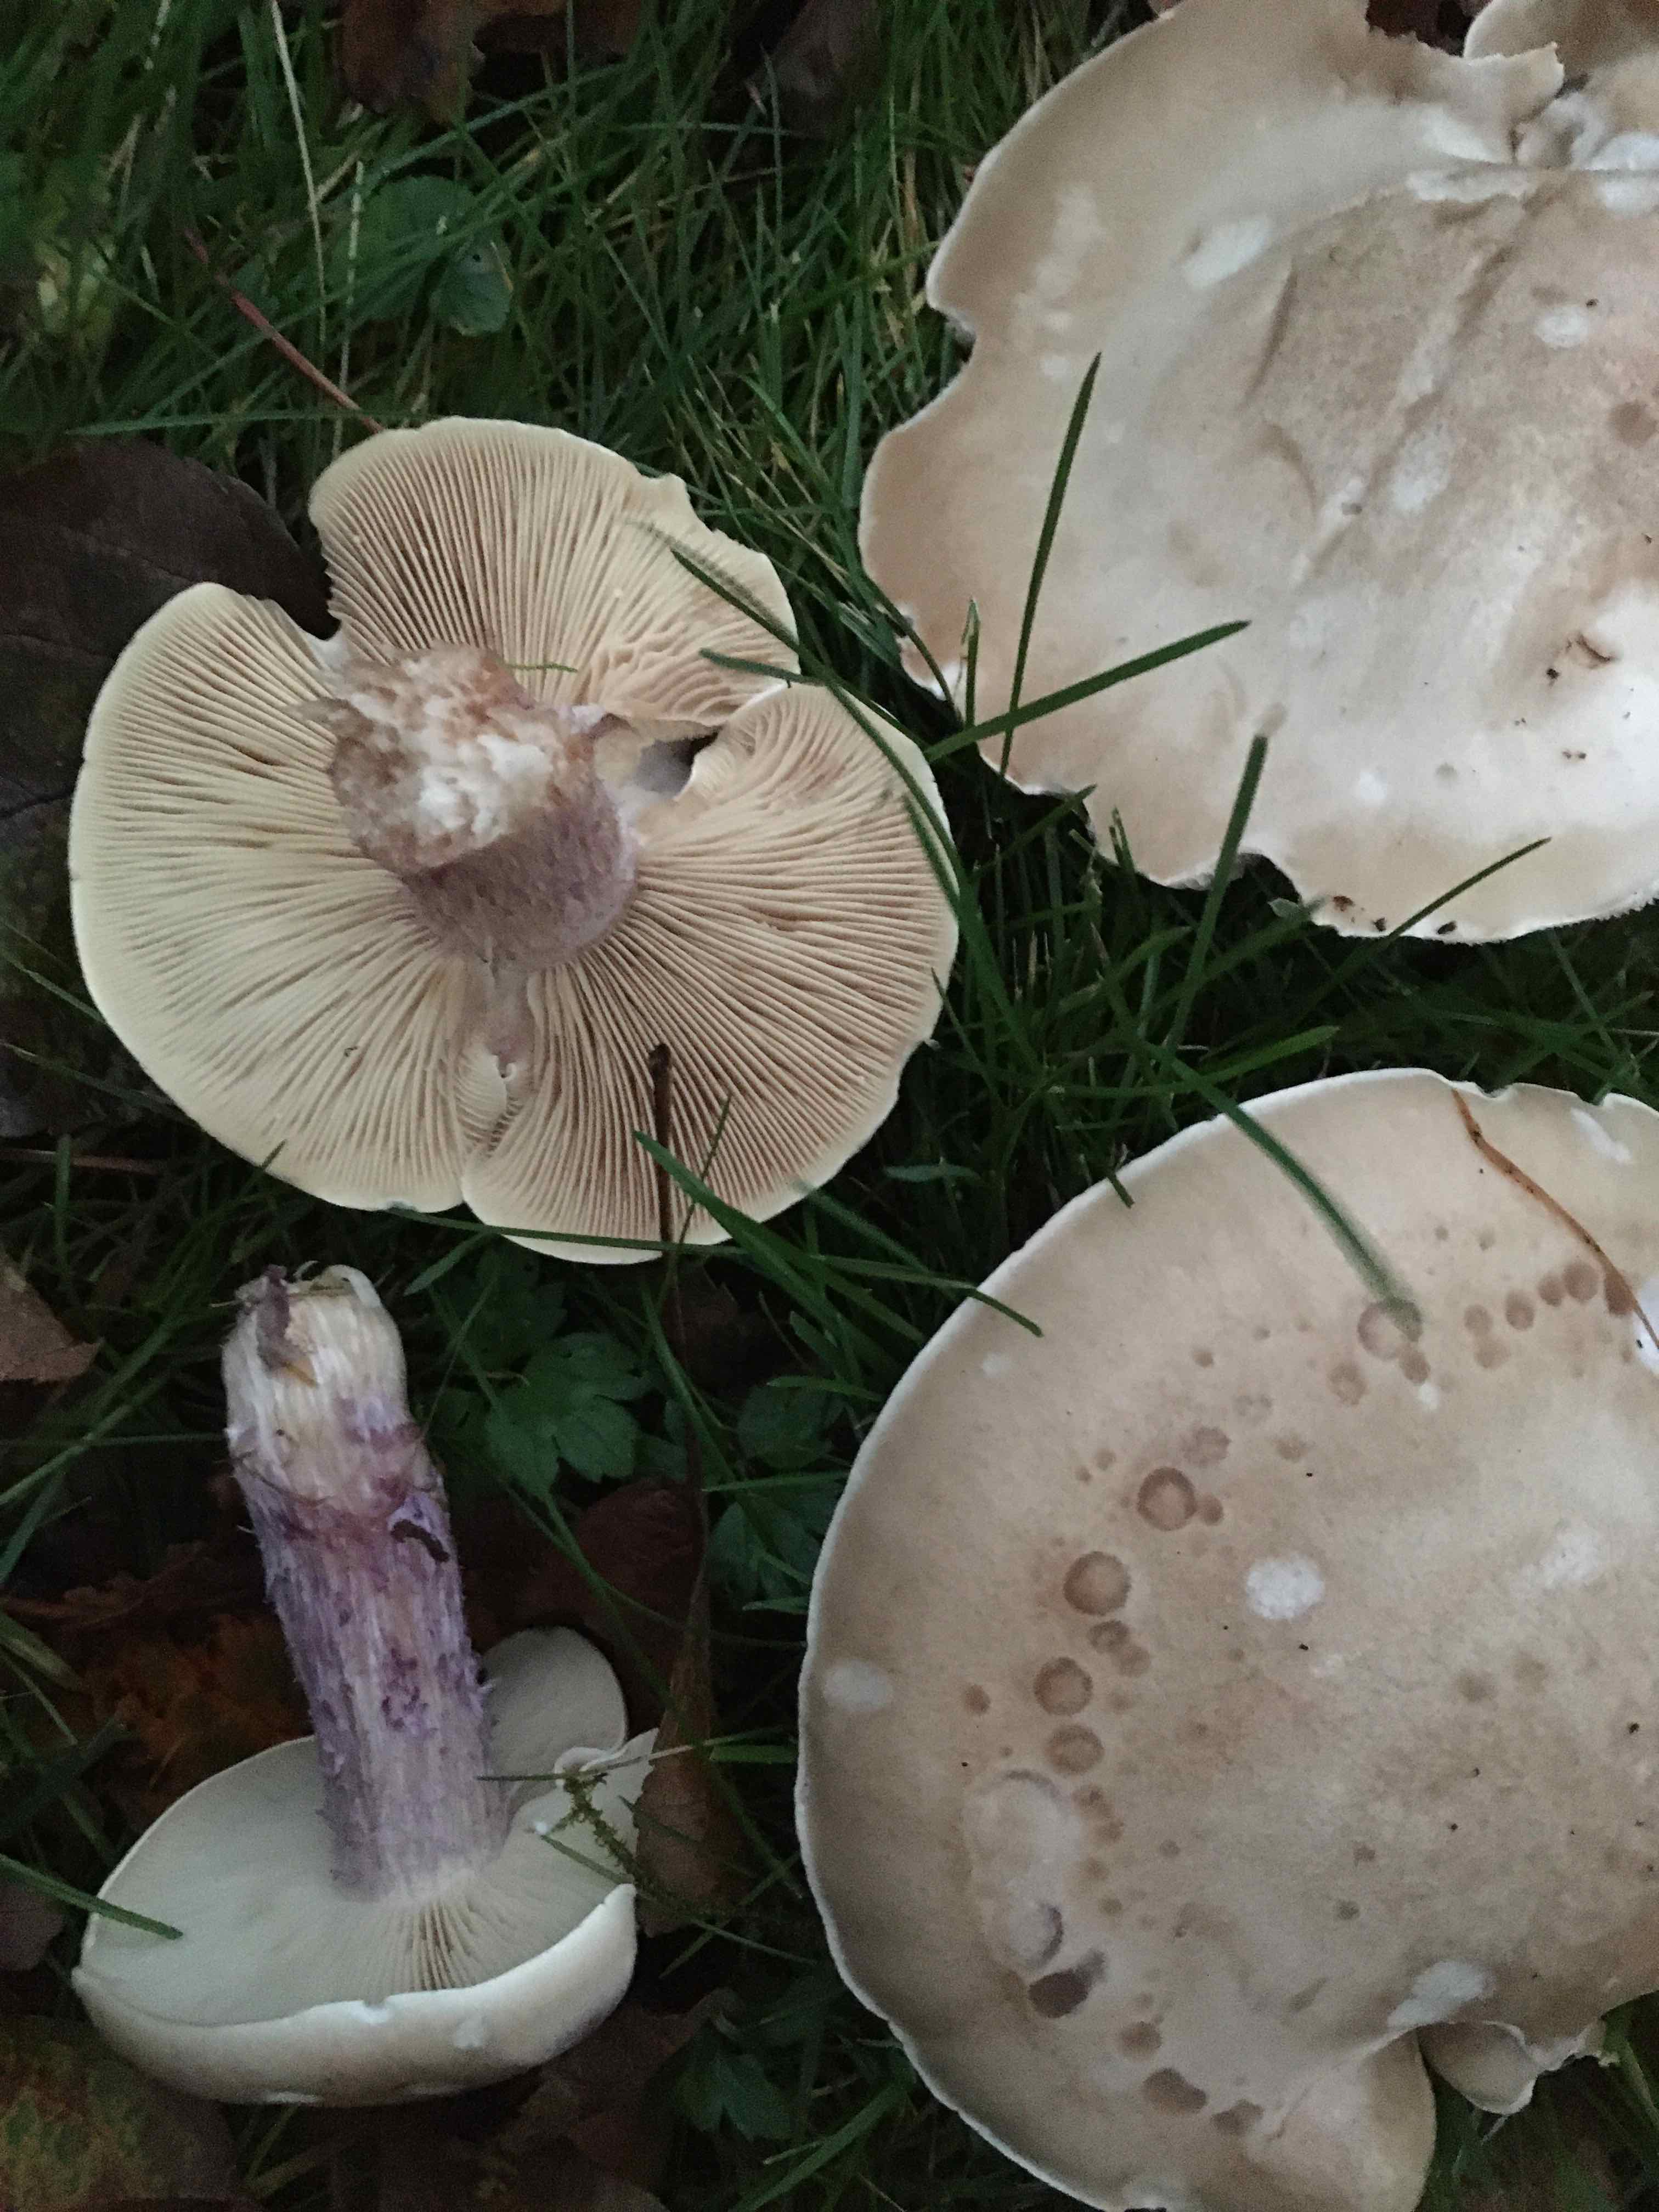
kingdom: Fungi
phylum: Basidiomycota
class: Agaricomycetes
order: Agaricales
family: Tricholomataceae
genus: Lepista
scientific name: Lepista personata
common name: bleg hekseringshat
